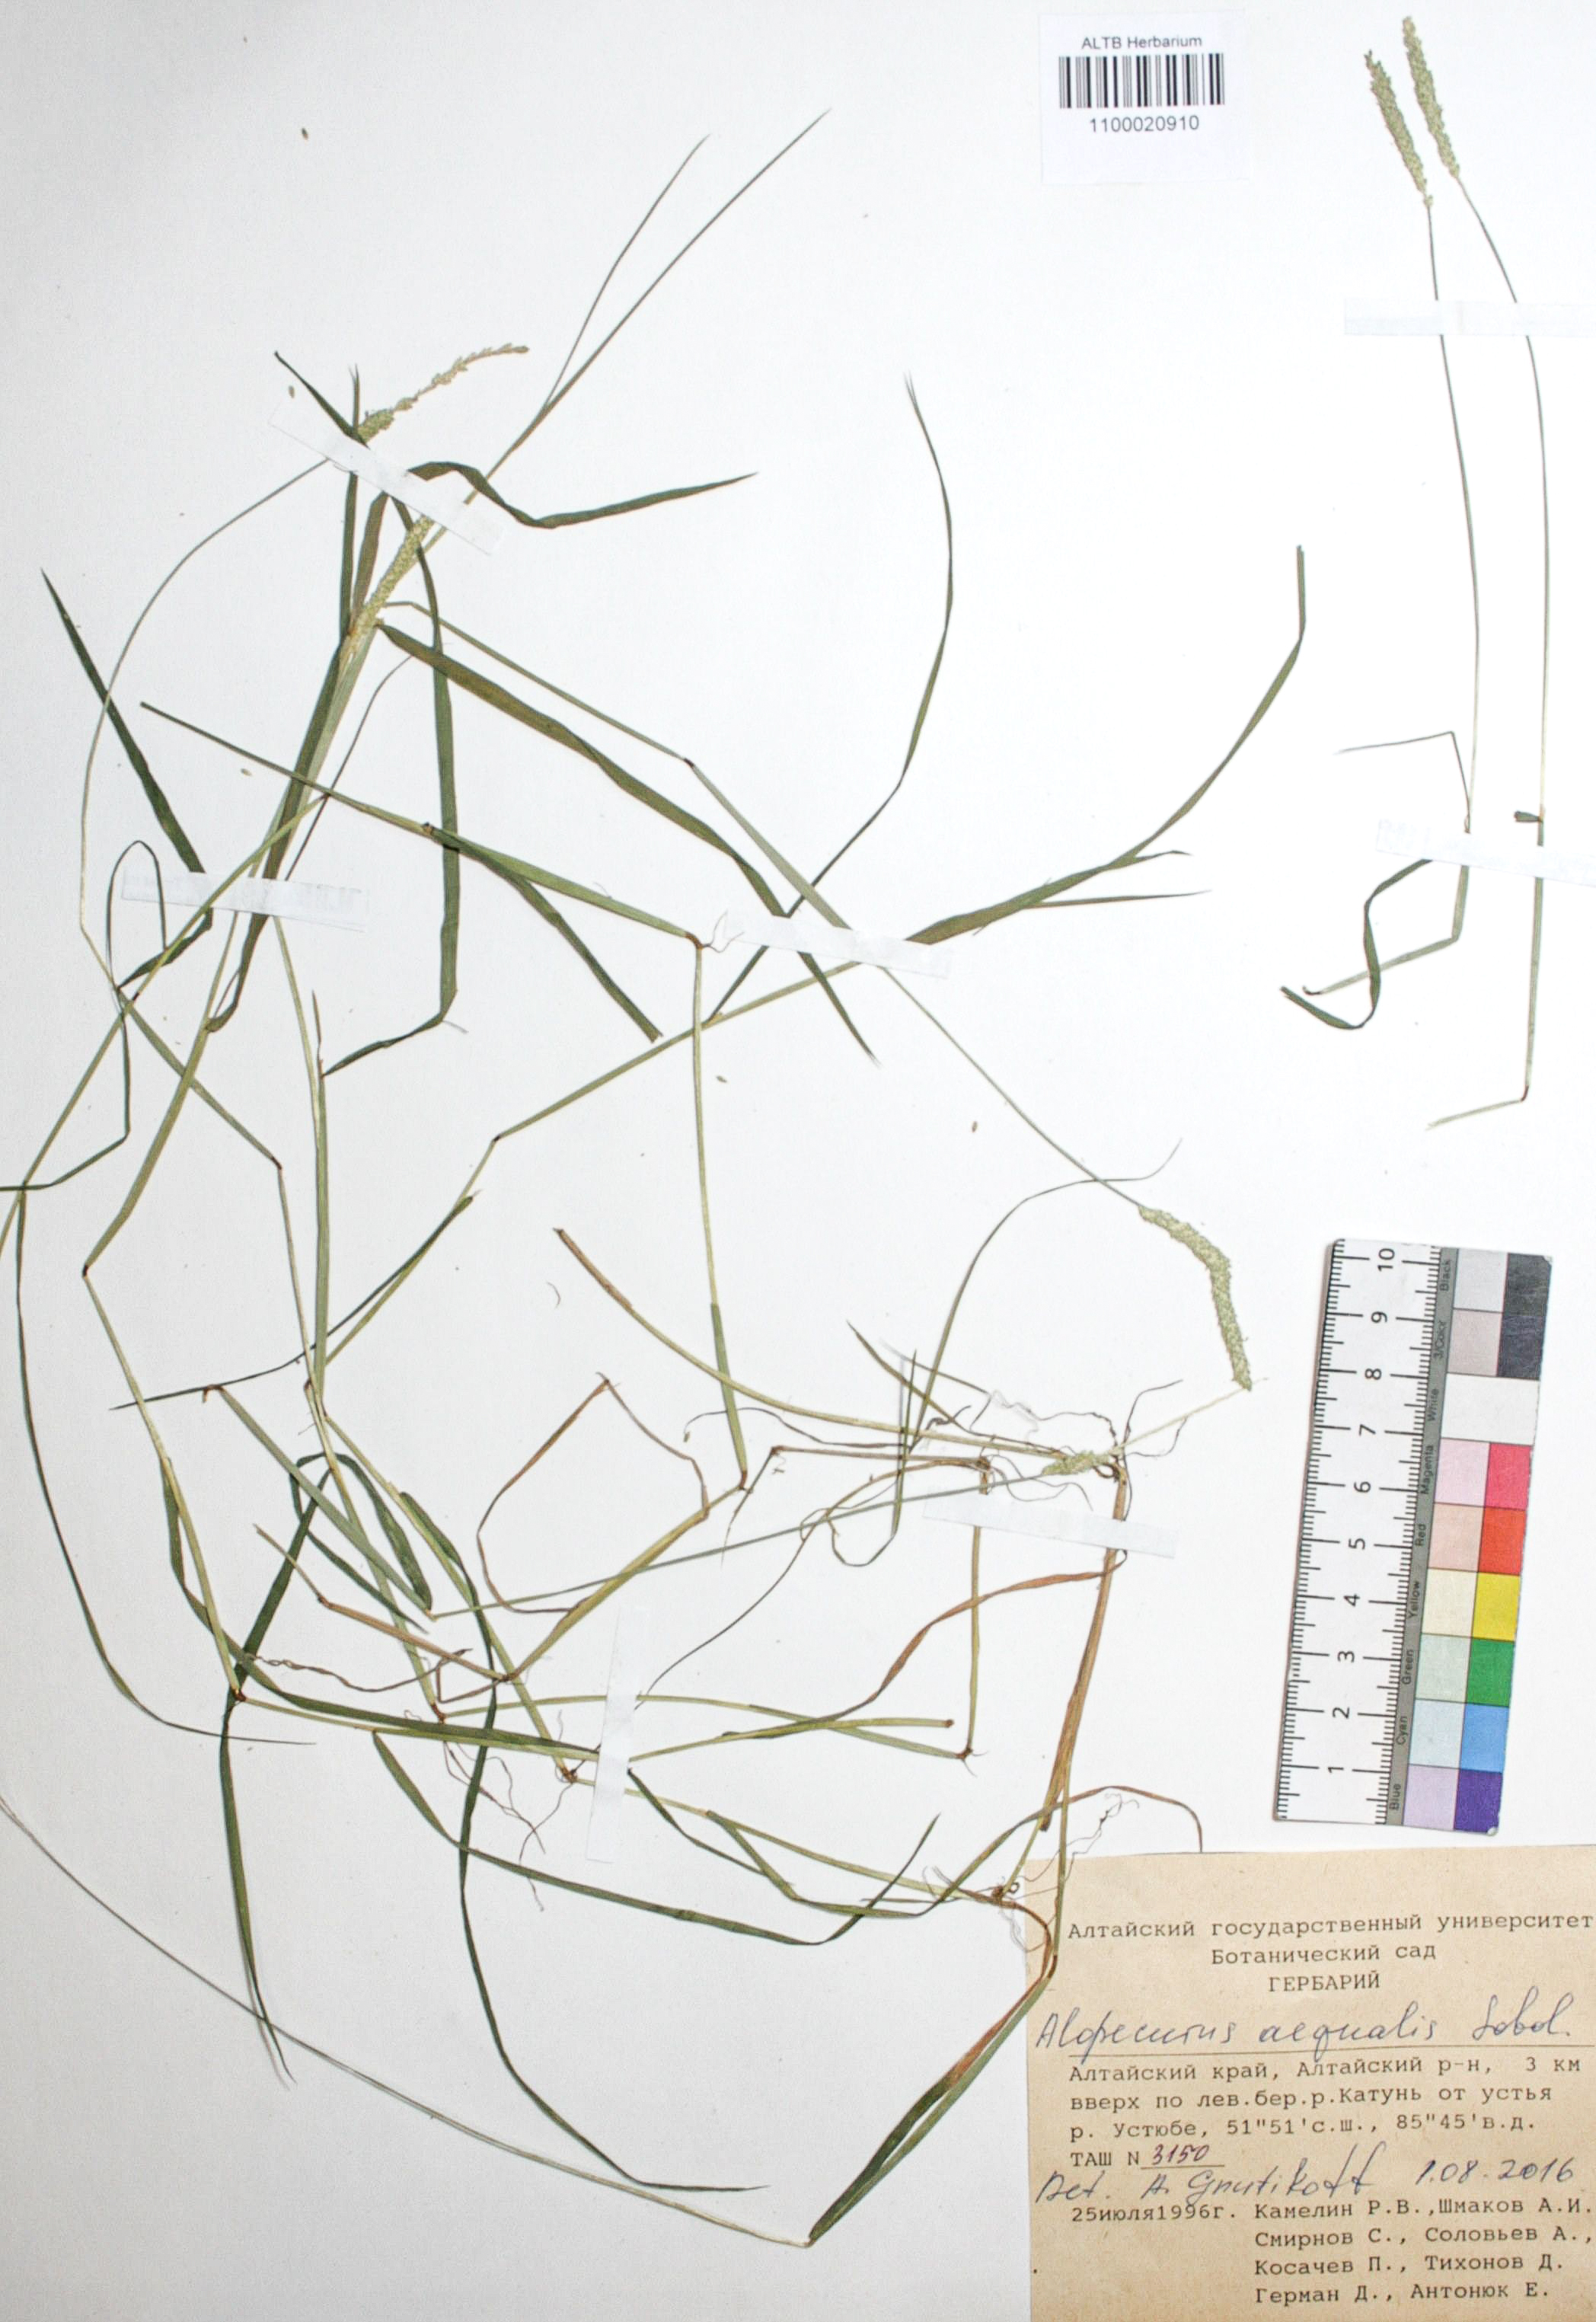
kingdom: Plantae
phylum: Tracheophyta
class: Liliopsida
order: Poales
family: Poaceae
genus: Alopecurus
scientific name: Alopecurus aequalis
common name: Orange foxtail
